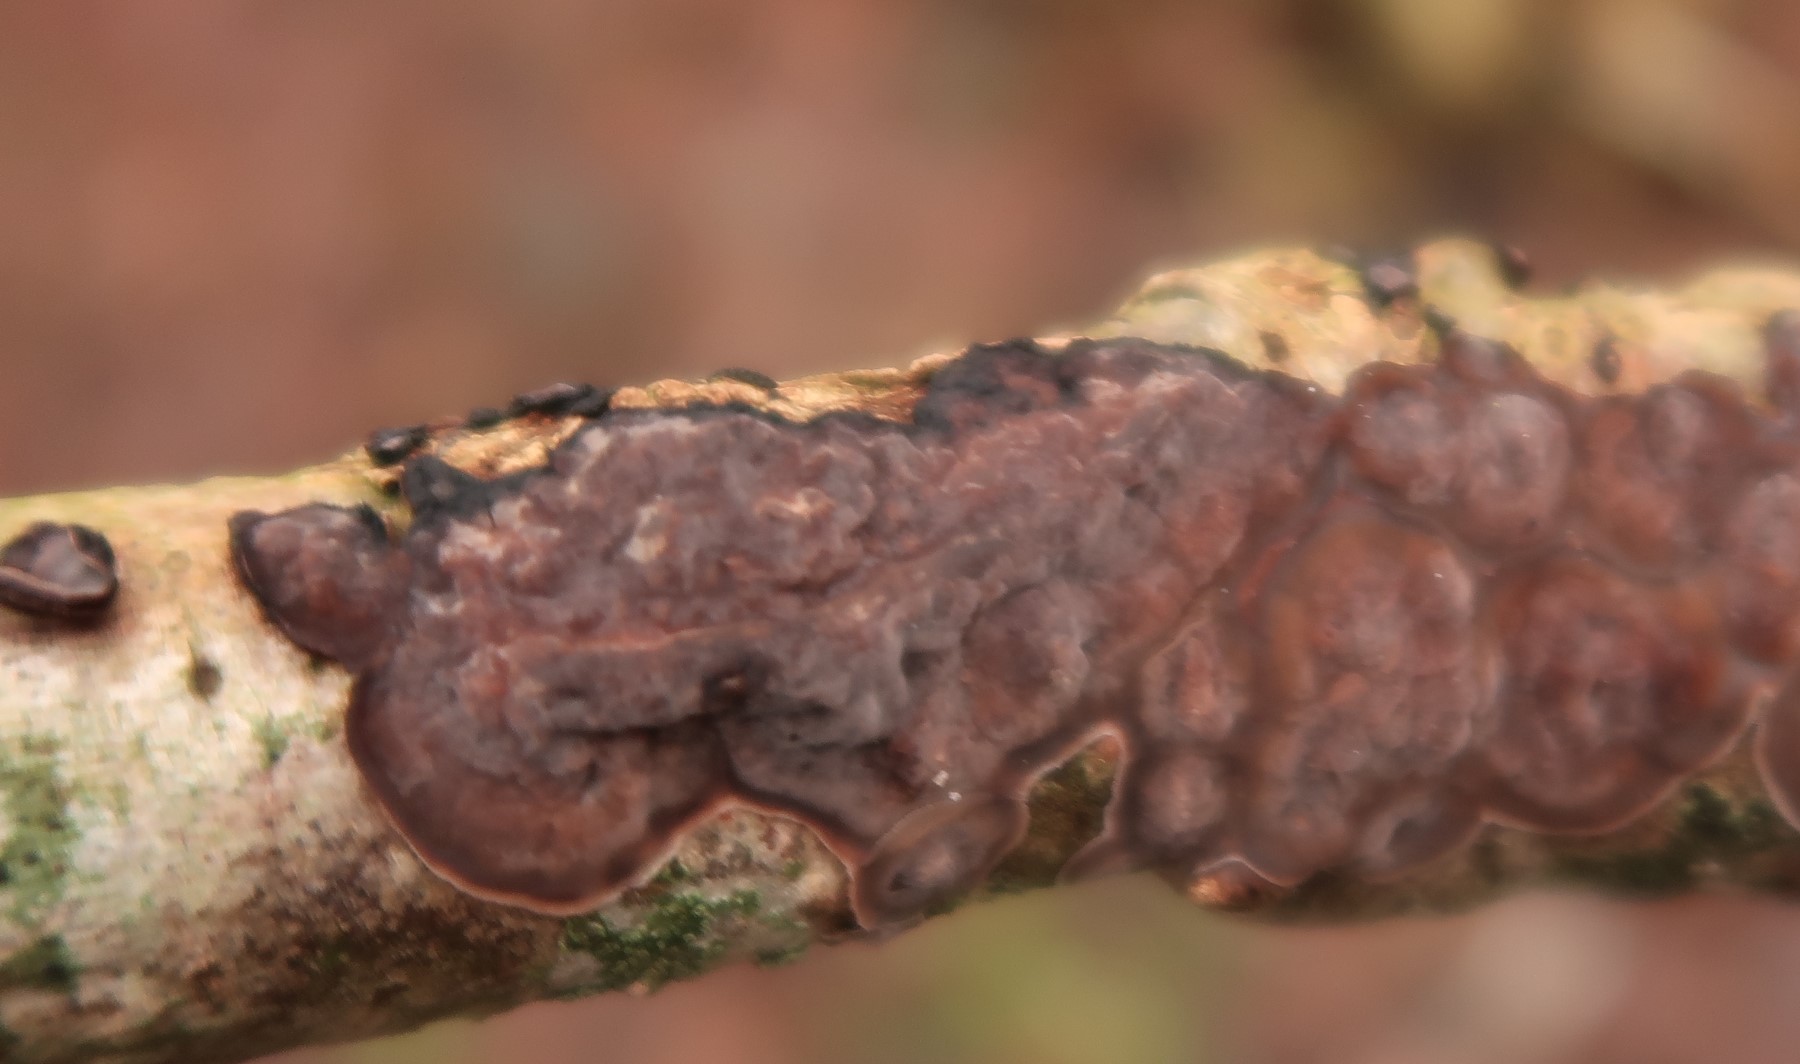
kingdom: Fungi
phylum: Basidiomycota
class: Agaricomycetes
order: Russulales
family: Peniophoraceae
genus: Peniophora
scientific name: Peniophora quercina
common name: ege-voksskind
